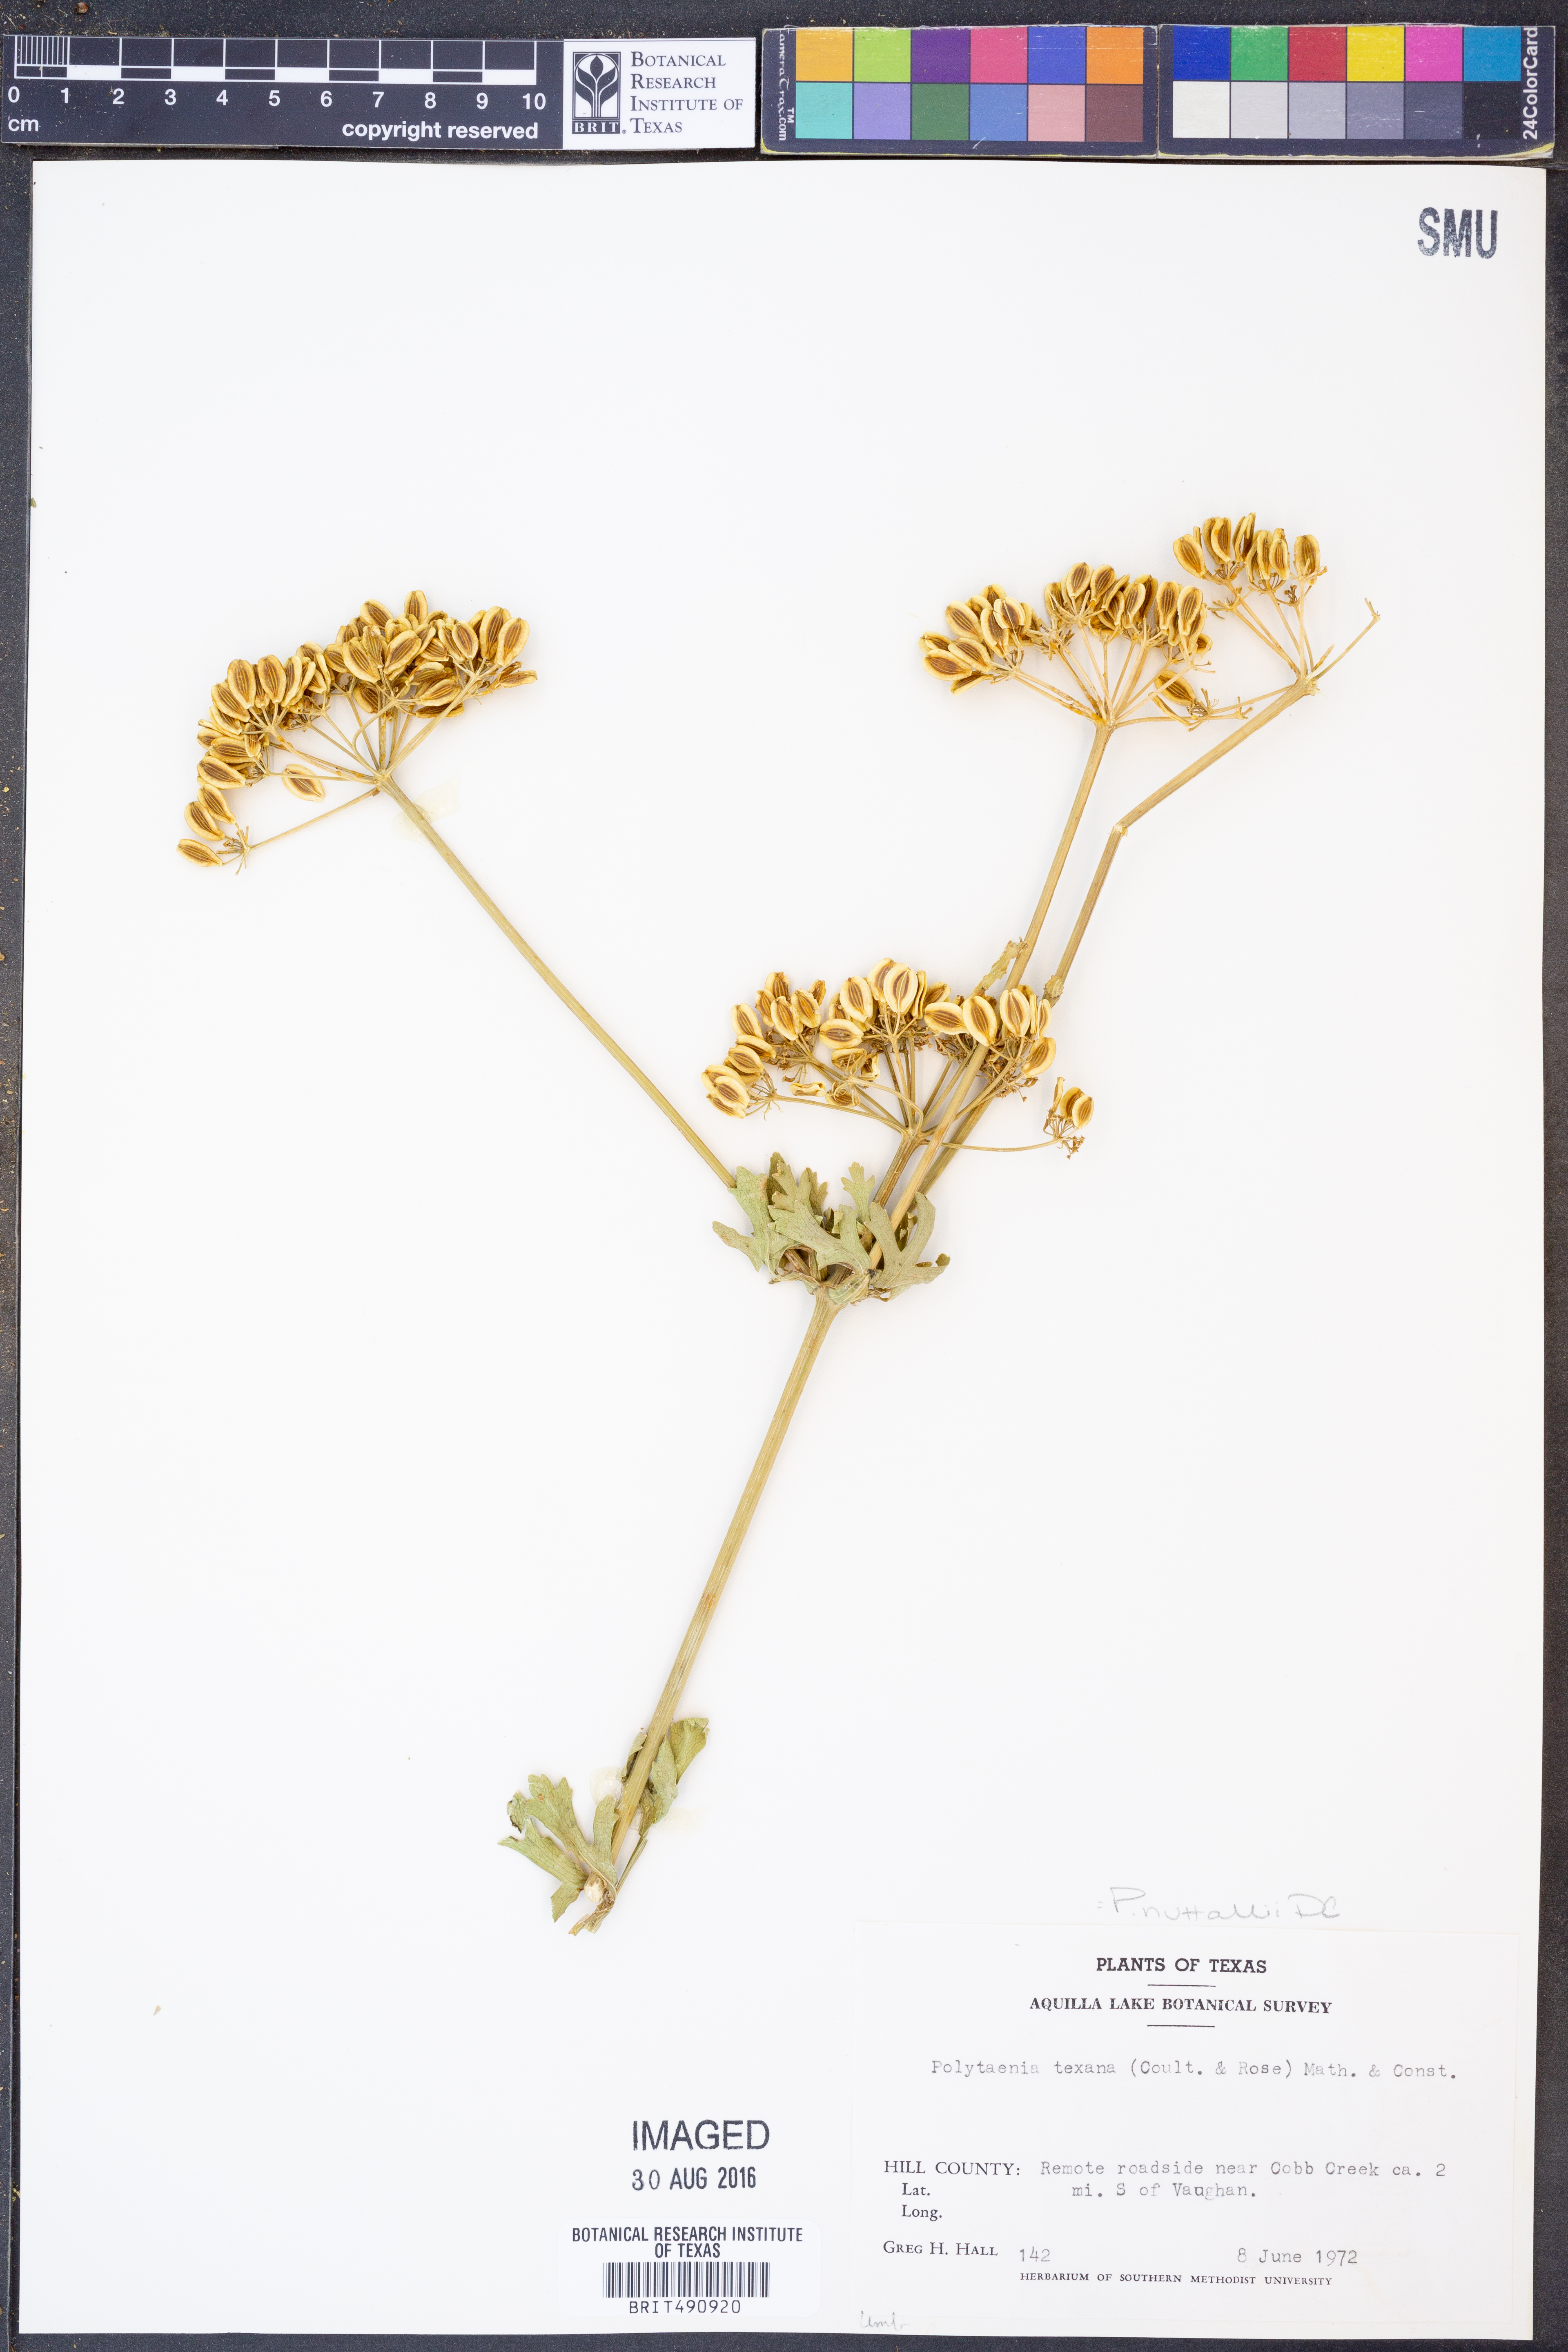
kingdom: Plantae
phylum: Tracheophyta
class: Magnoliopsida
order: Apiales
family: Apiaceae
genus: Polytaenia
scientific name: Polytaenia nuttallii
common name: Prairie-parsley
